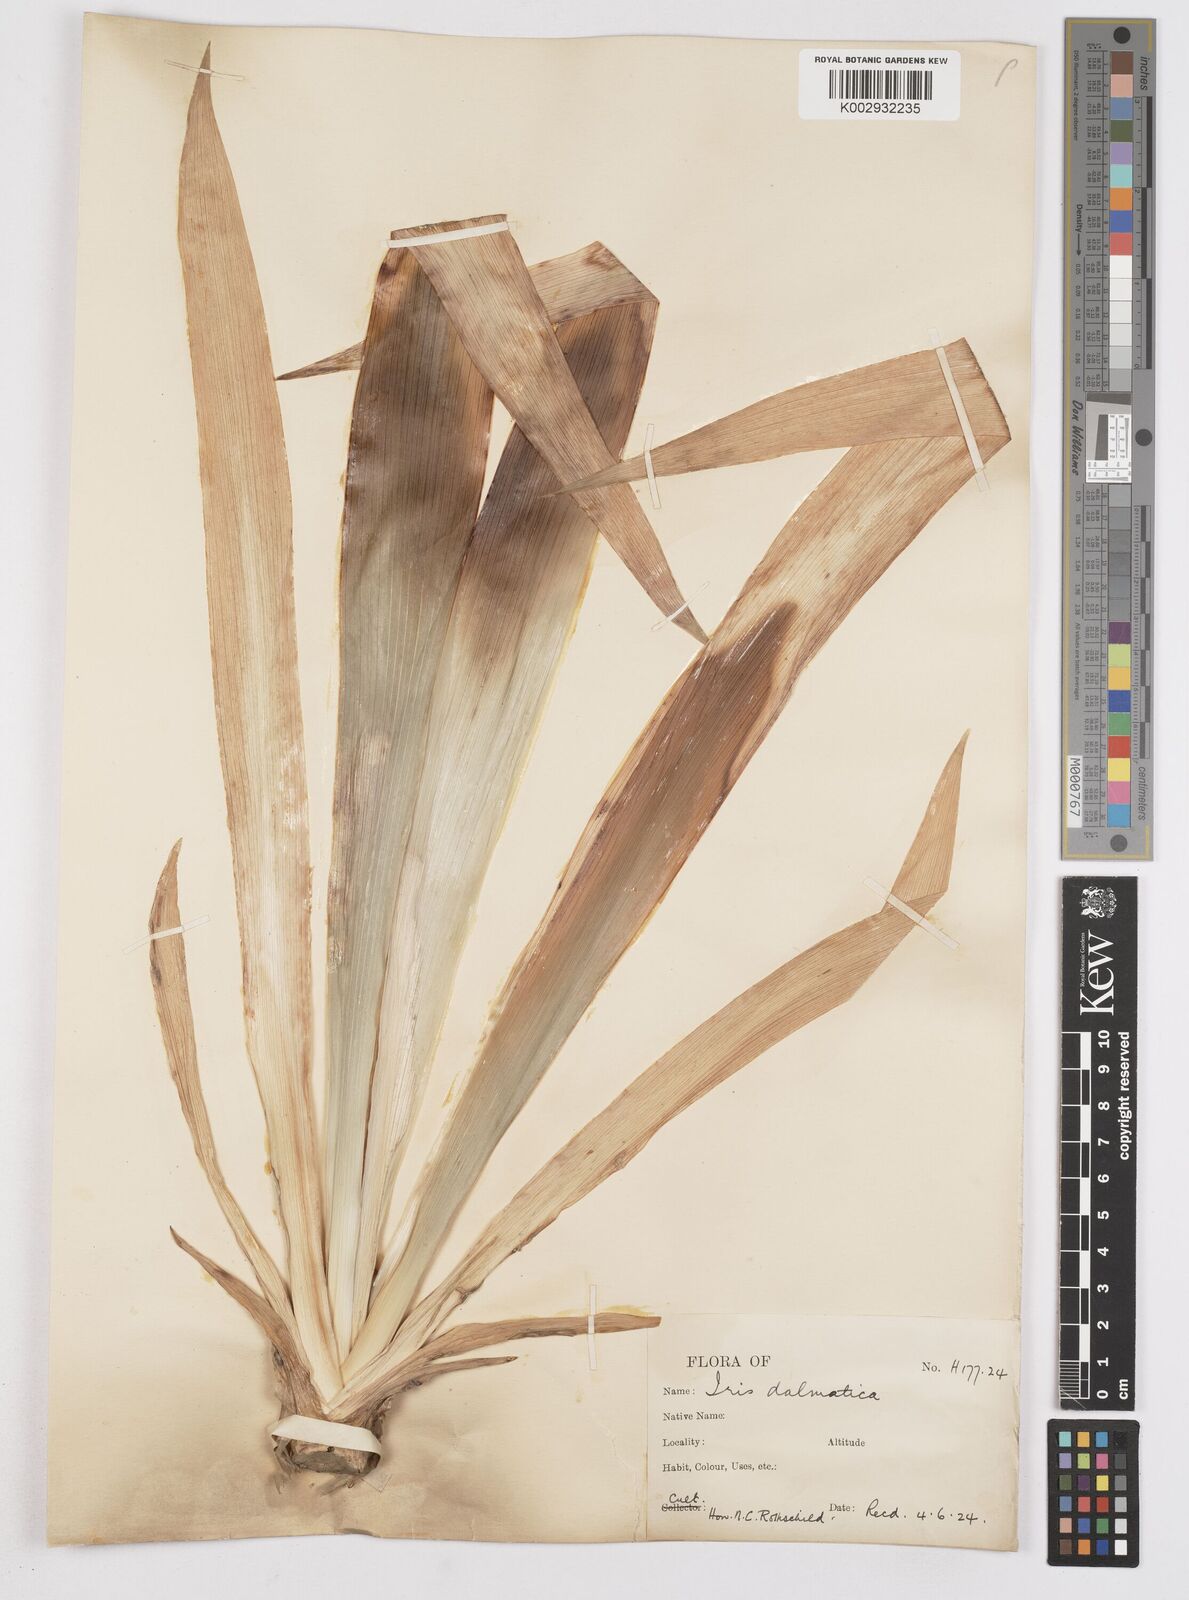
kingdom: Plantae
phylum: Tracheophyta
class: Liliopsida
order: Asparagales
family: Iridaceae
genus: Iris
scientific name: Iris pallida
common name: Sweet iris
